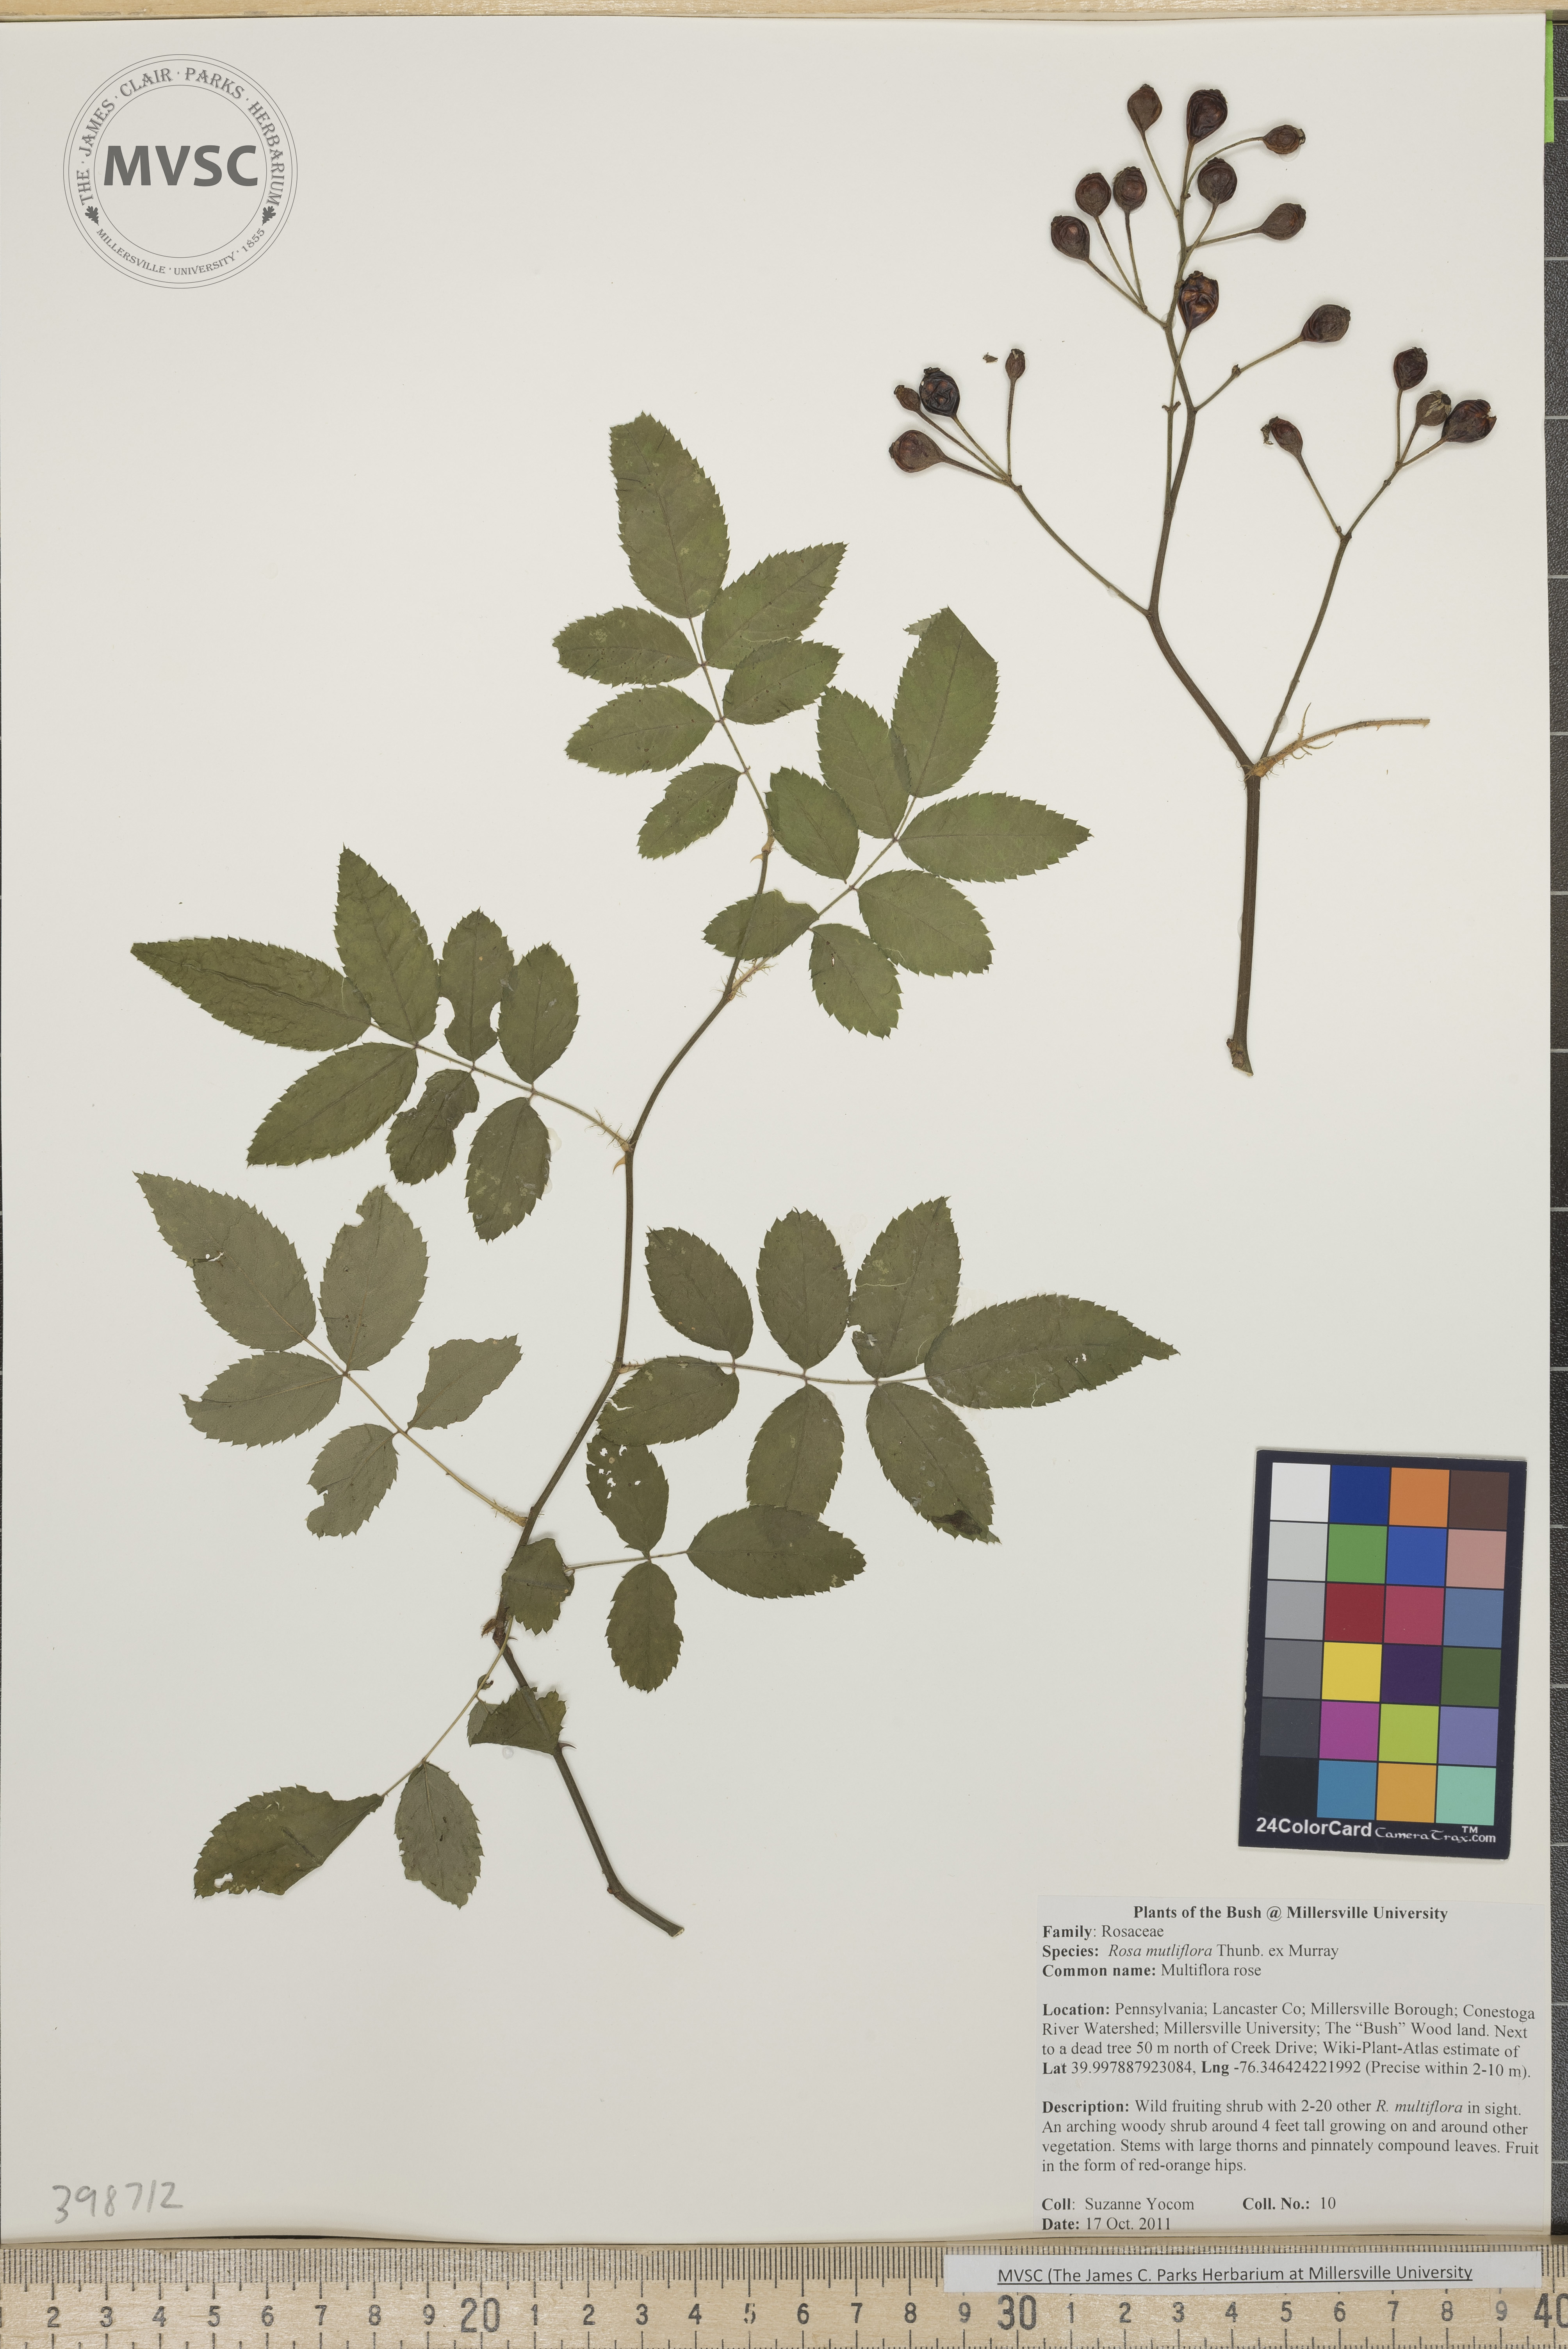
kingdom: Plantae
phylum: Tracheophyta
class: Magnoliopsida
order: Rosales
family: Rosaceae
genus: Rosa
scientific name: Rosa multiflora
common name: Multiflora rose
